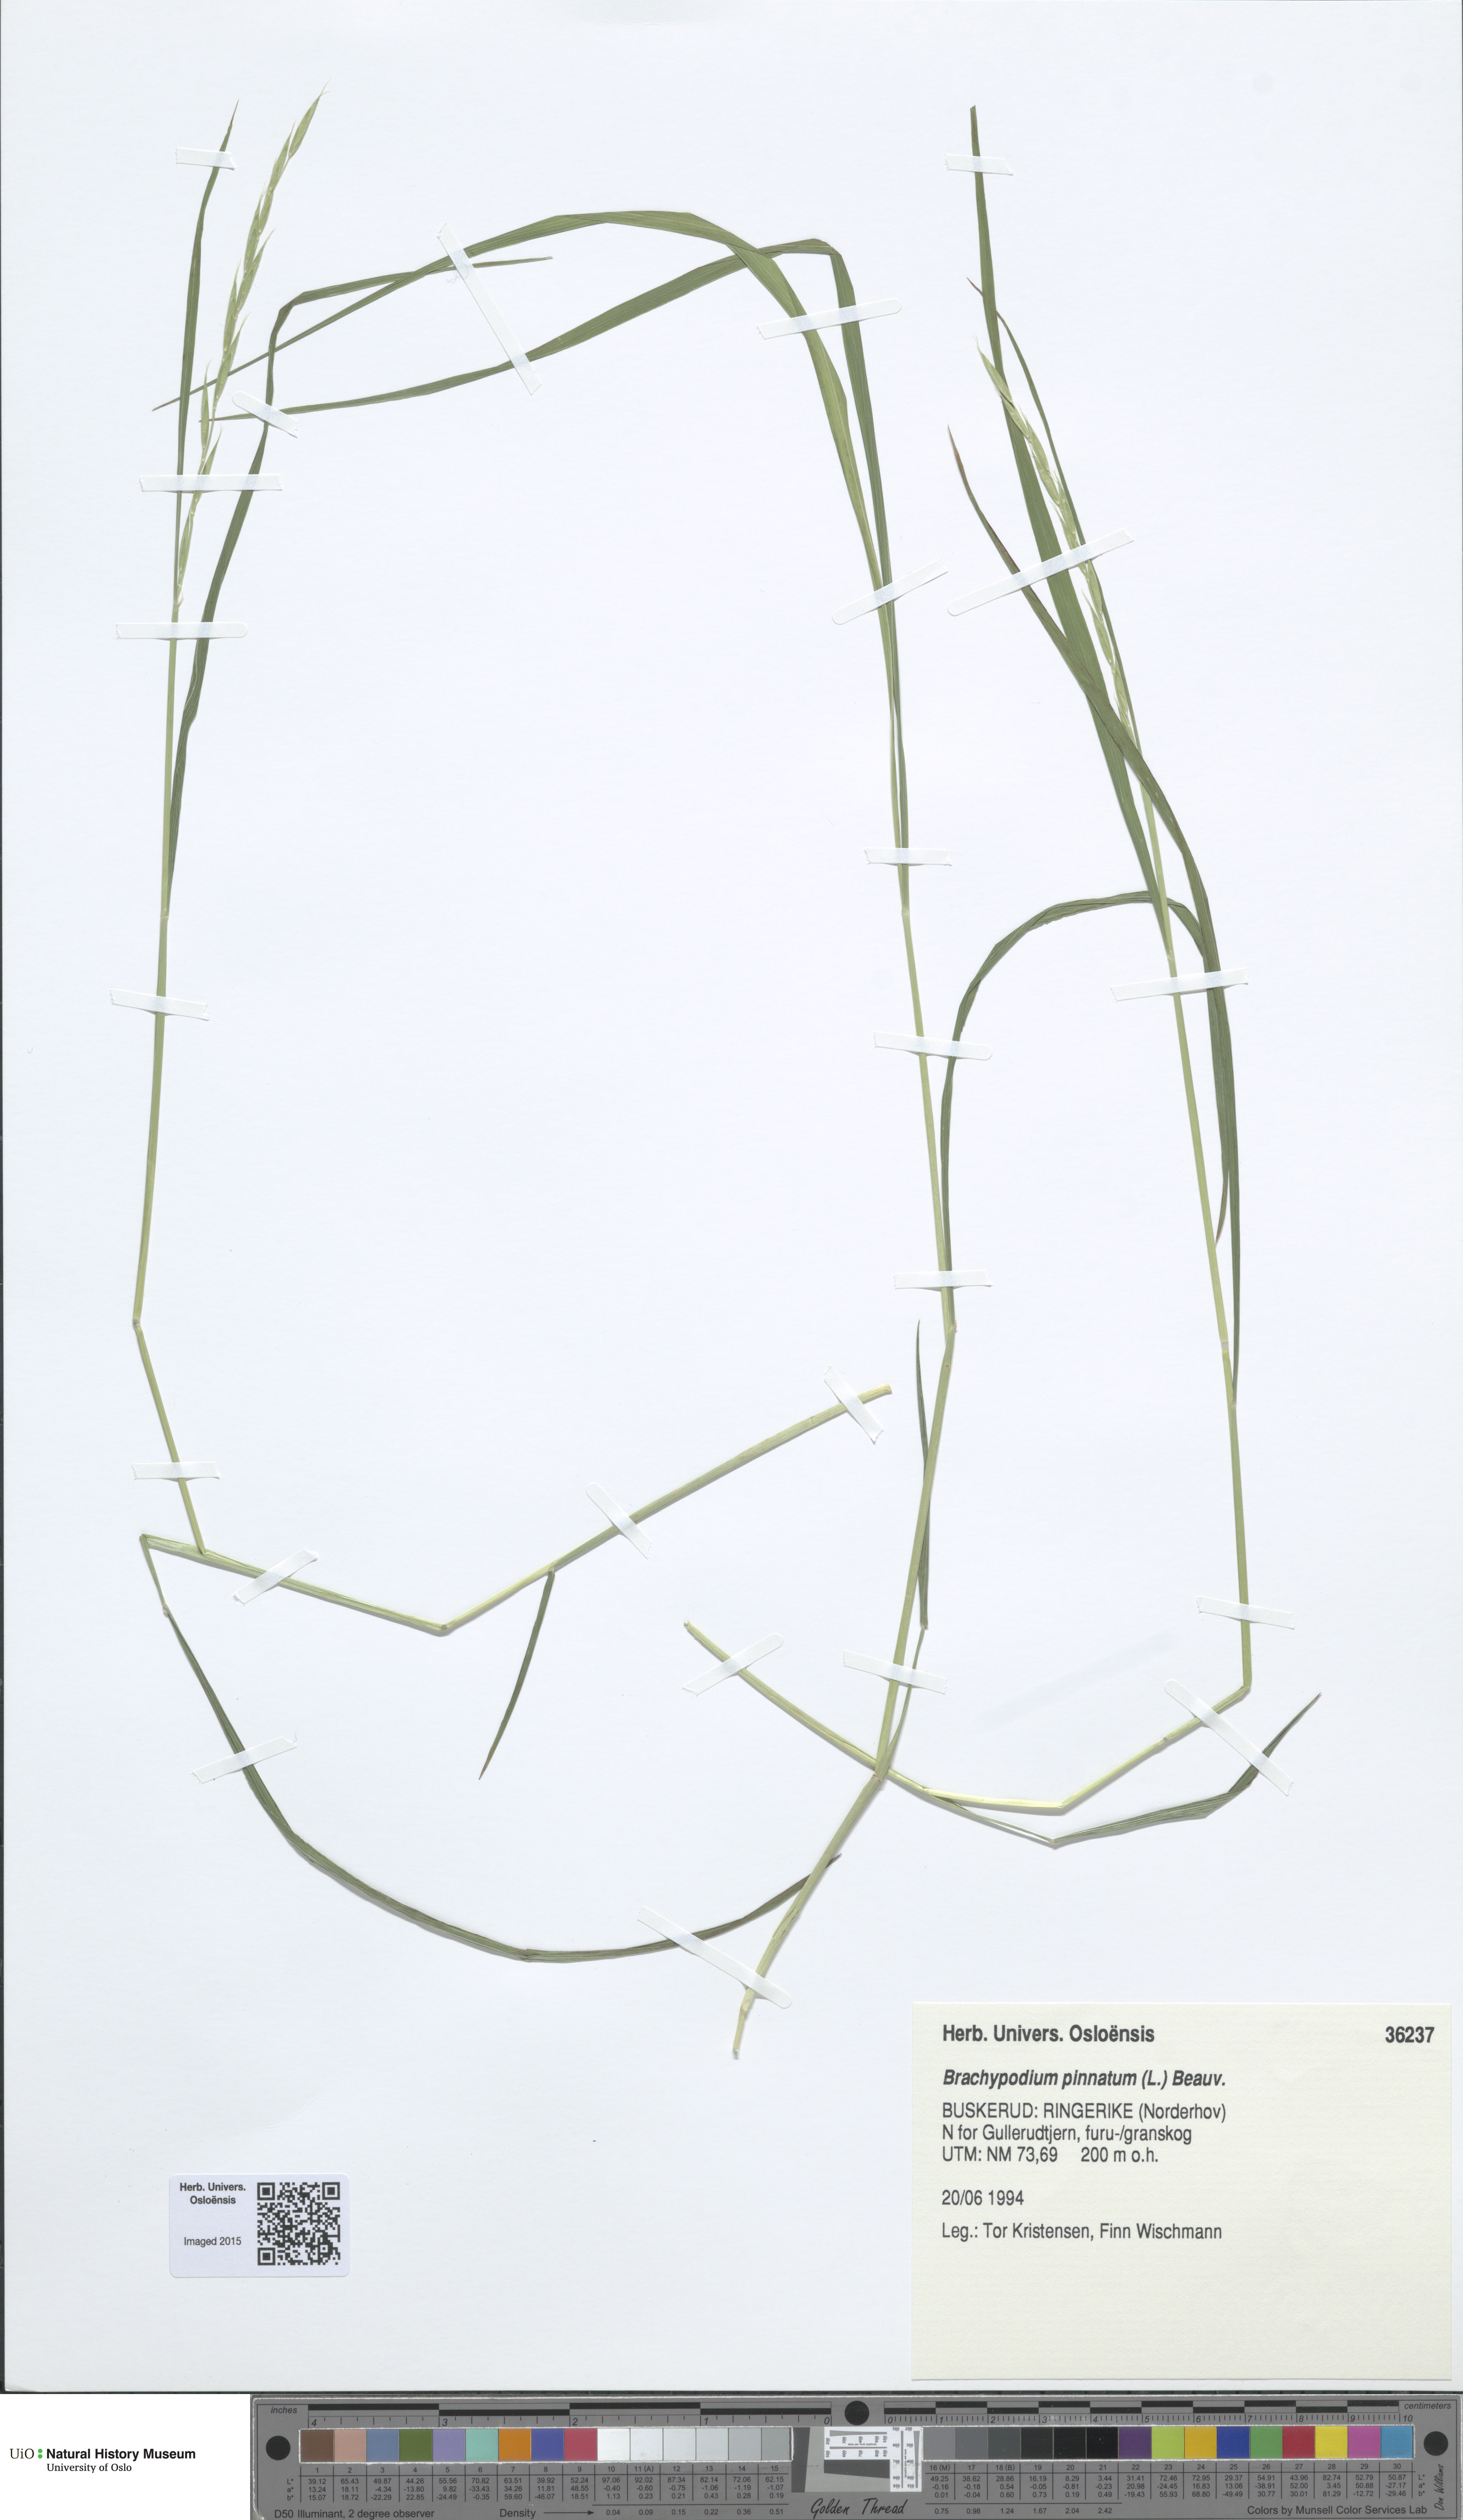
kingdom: Plantae
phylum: Tracheophyta
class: Liliopsida
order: Poales
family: Poaceae
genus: Brachypodium
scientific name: Brachypodium pinnatum
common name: Tor grass
